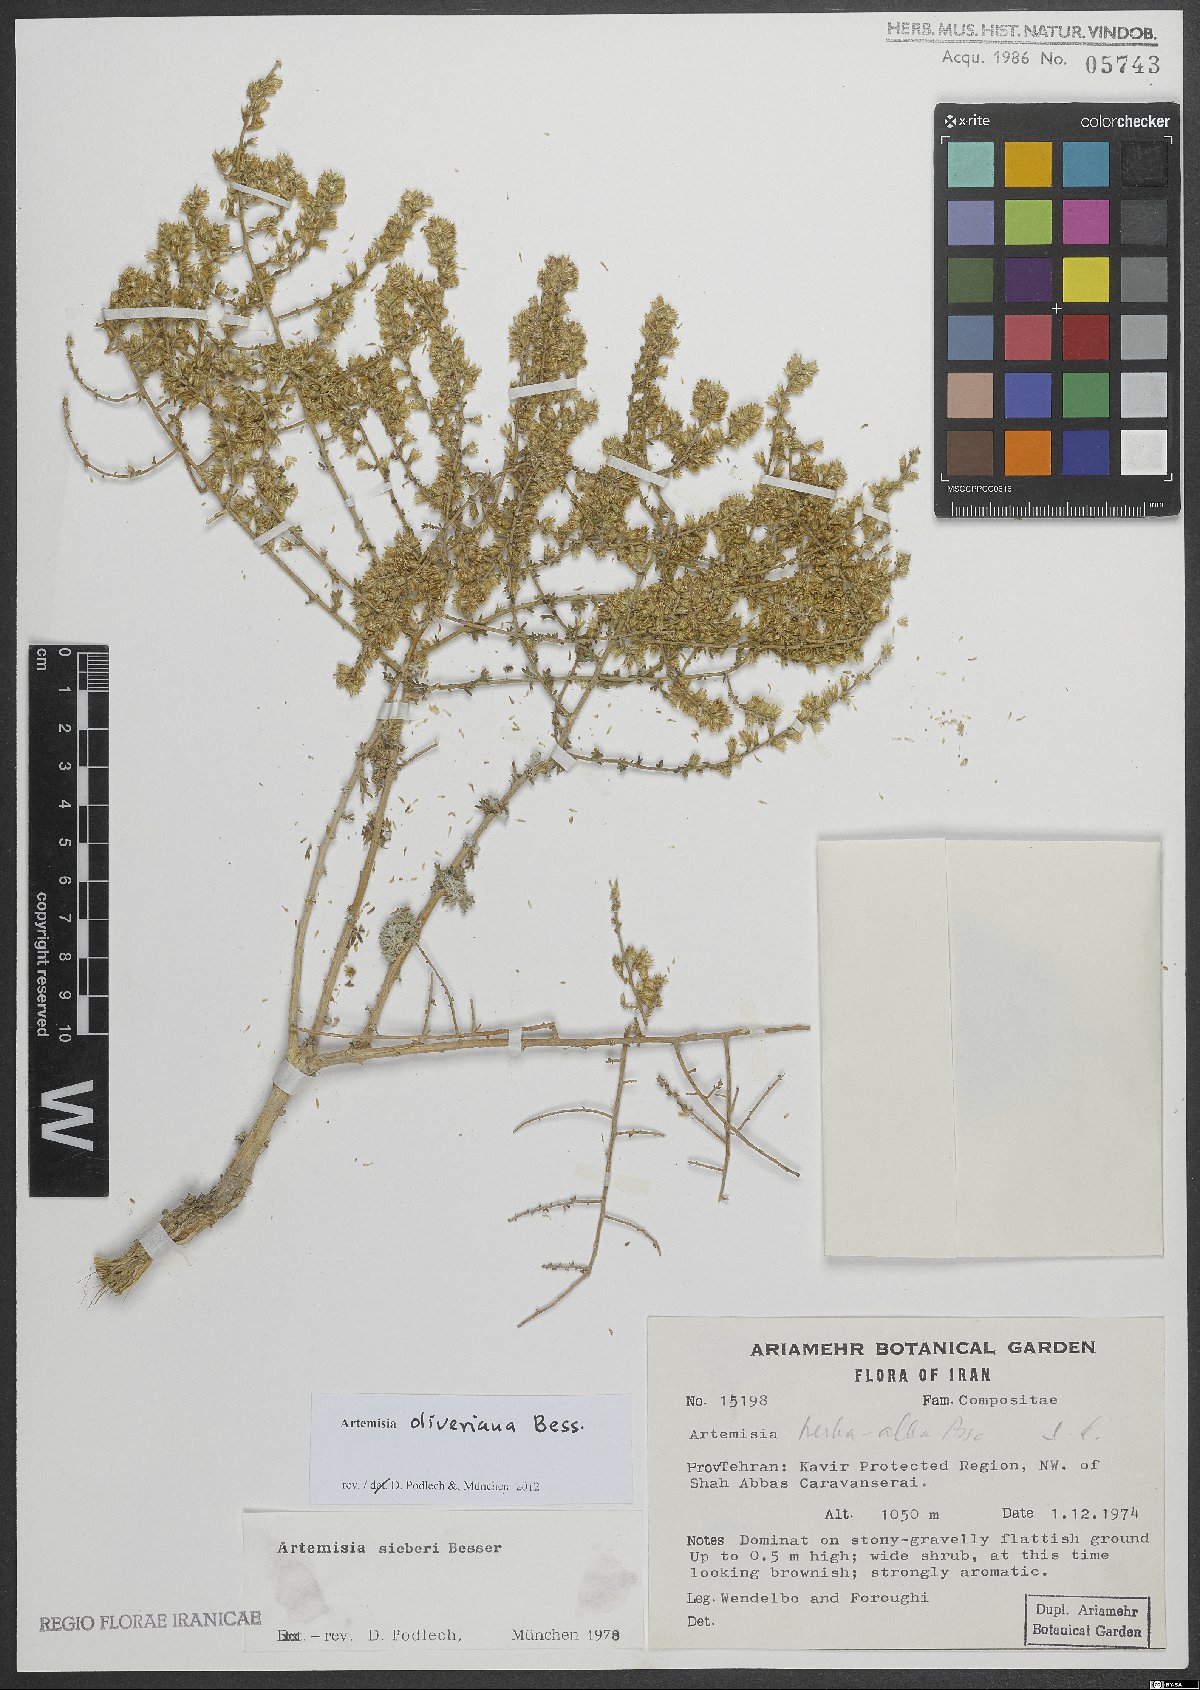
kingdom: Plantae
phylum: Tracheophyta
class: Magnoliopsida
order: Asterales
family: Asteraceae
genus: Artemisia
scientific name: Artemisia oliveriana
